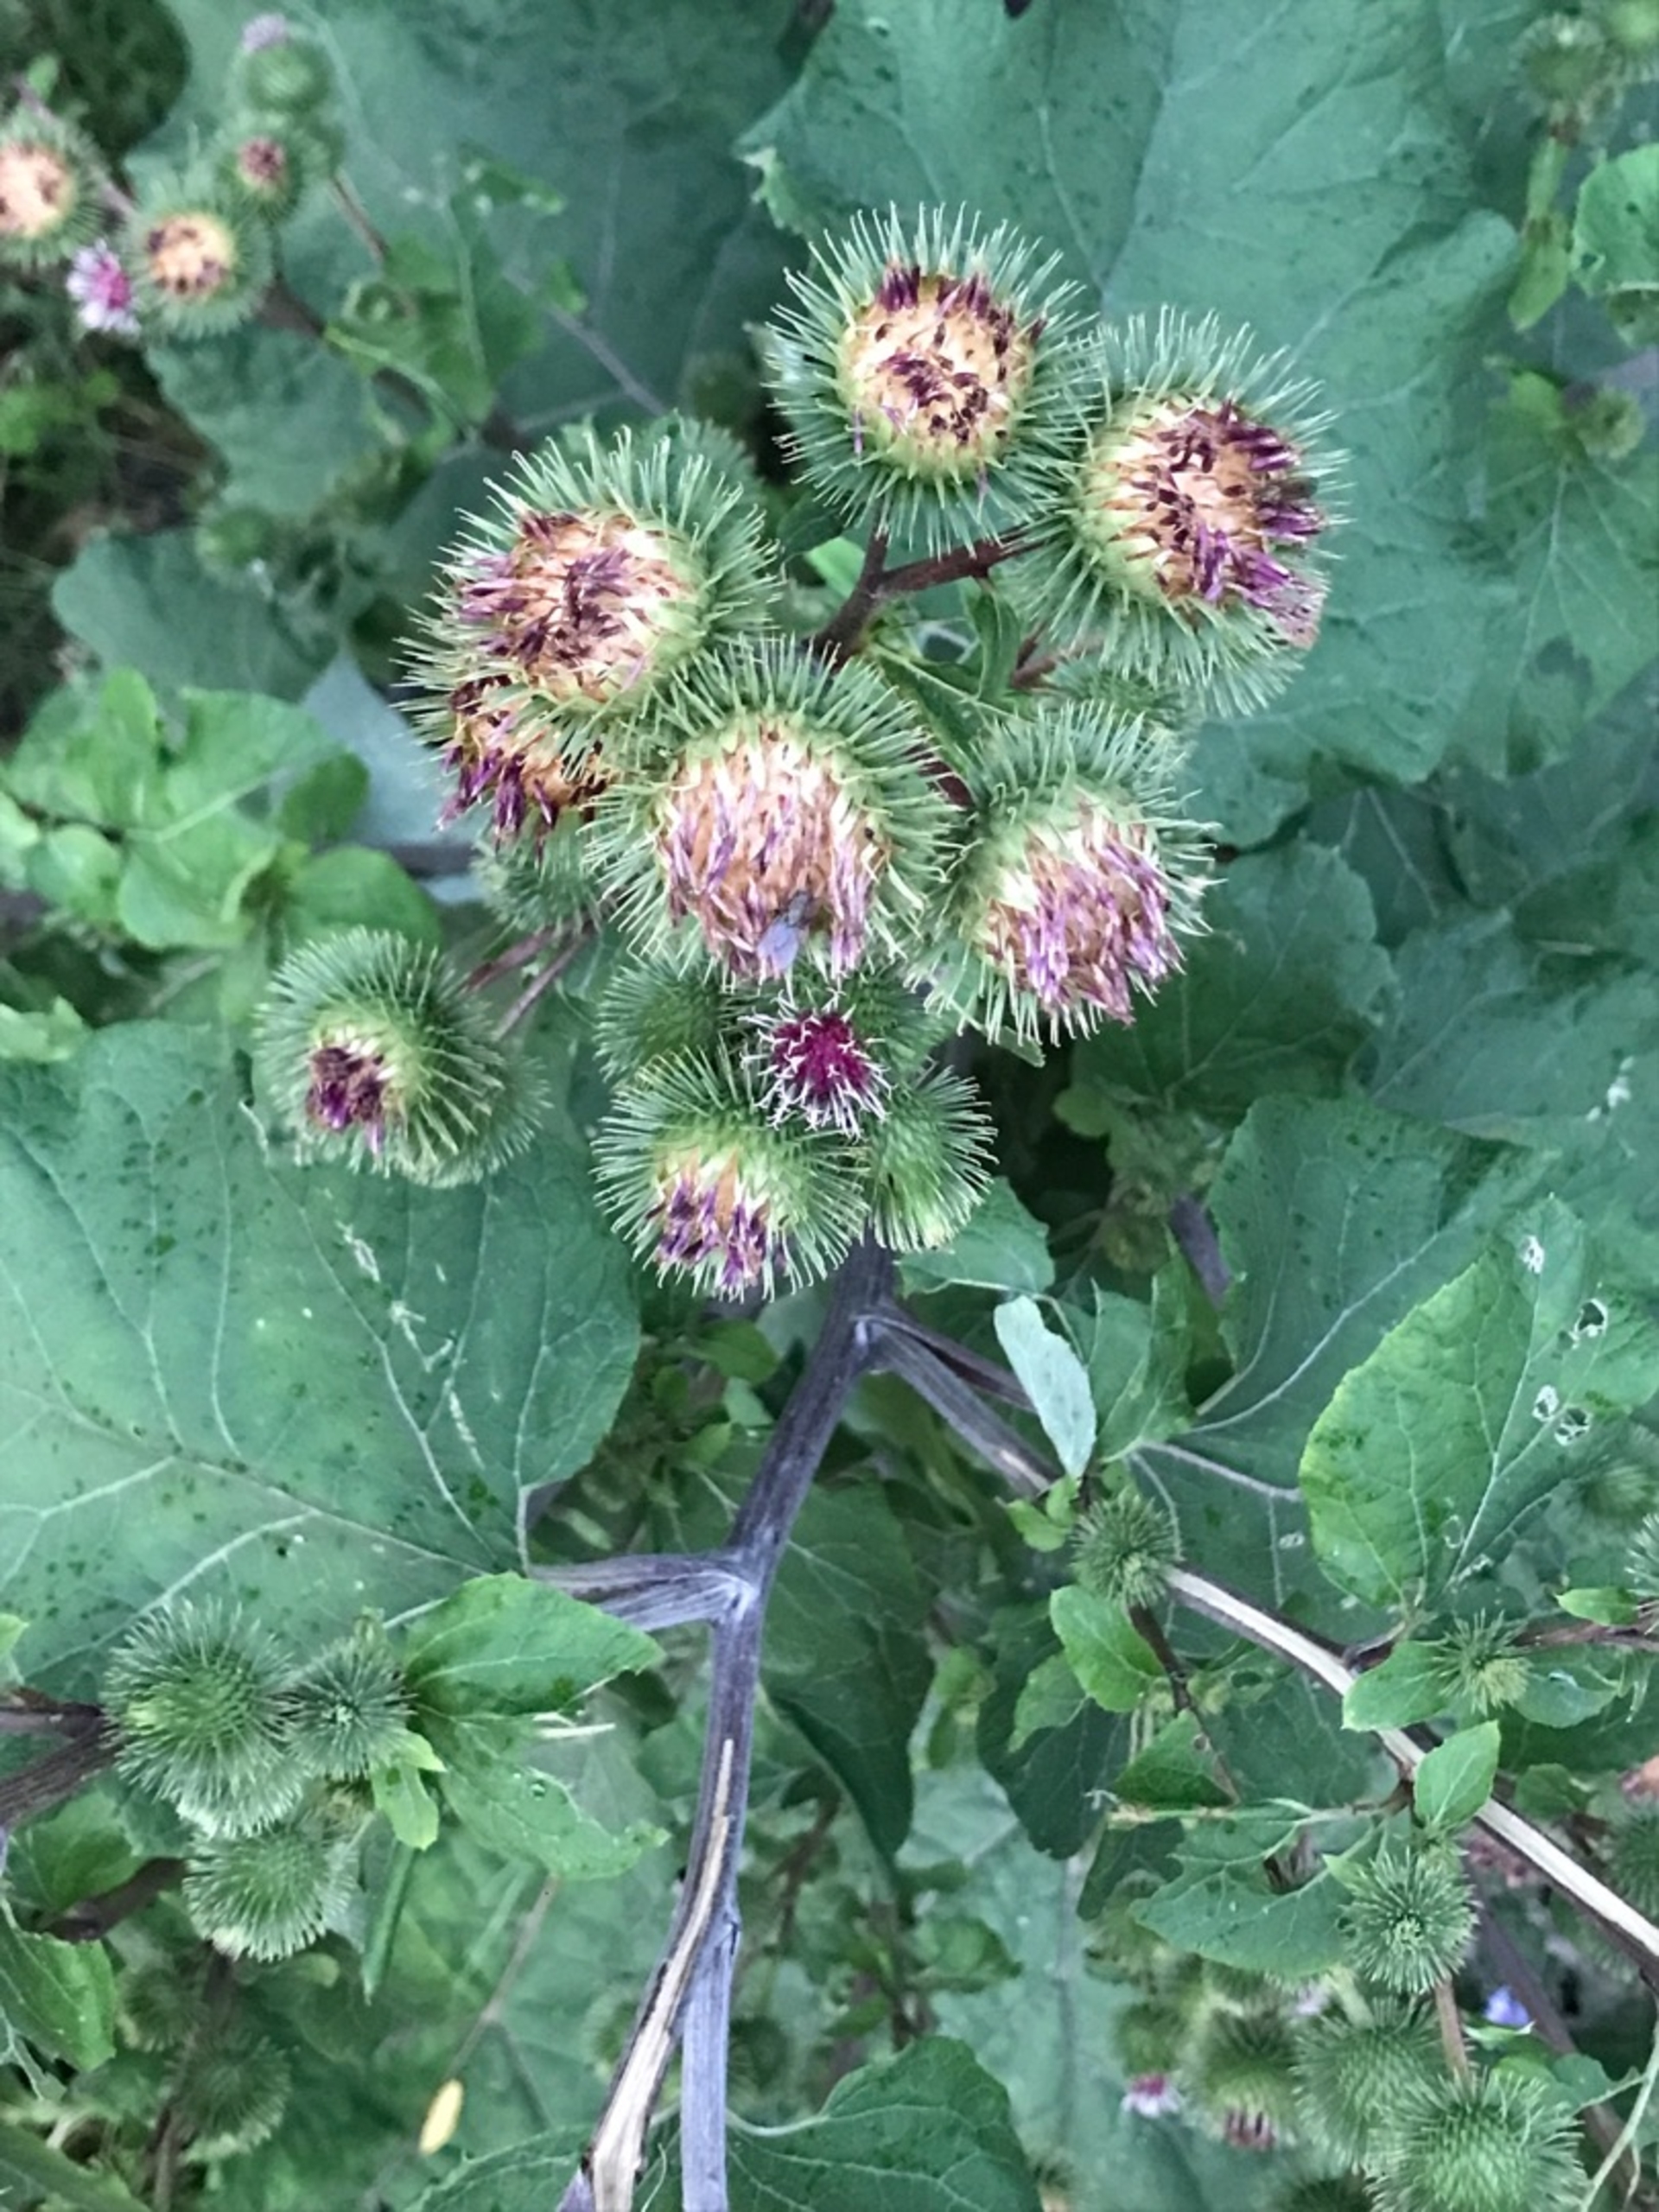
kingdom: Plantae
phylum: Tracheophyta
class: Magnoliopsida
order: Asterales
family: Asteraceae
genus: Arctium
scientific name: Arctium lappa
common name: Glat burre
